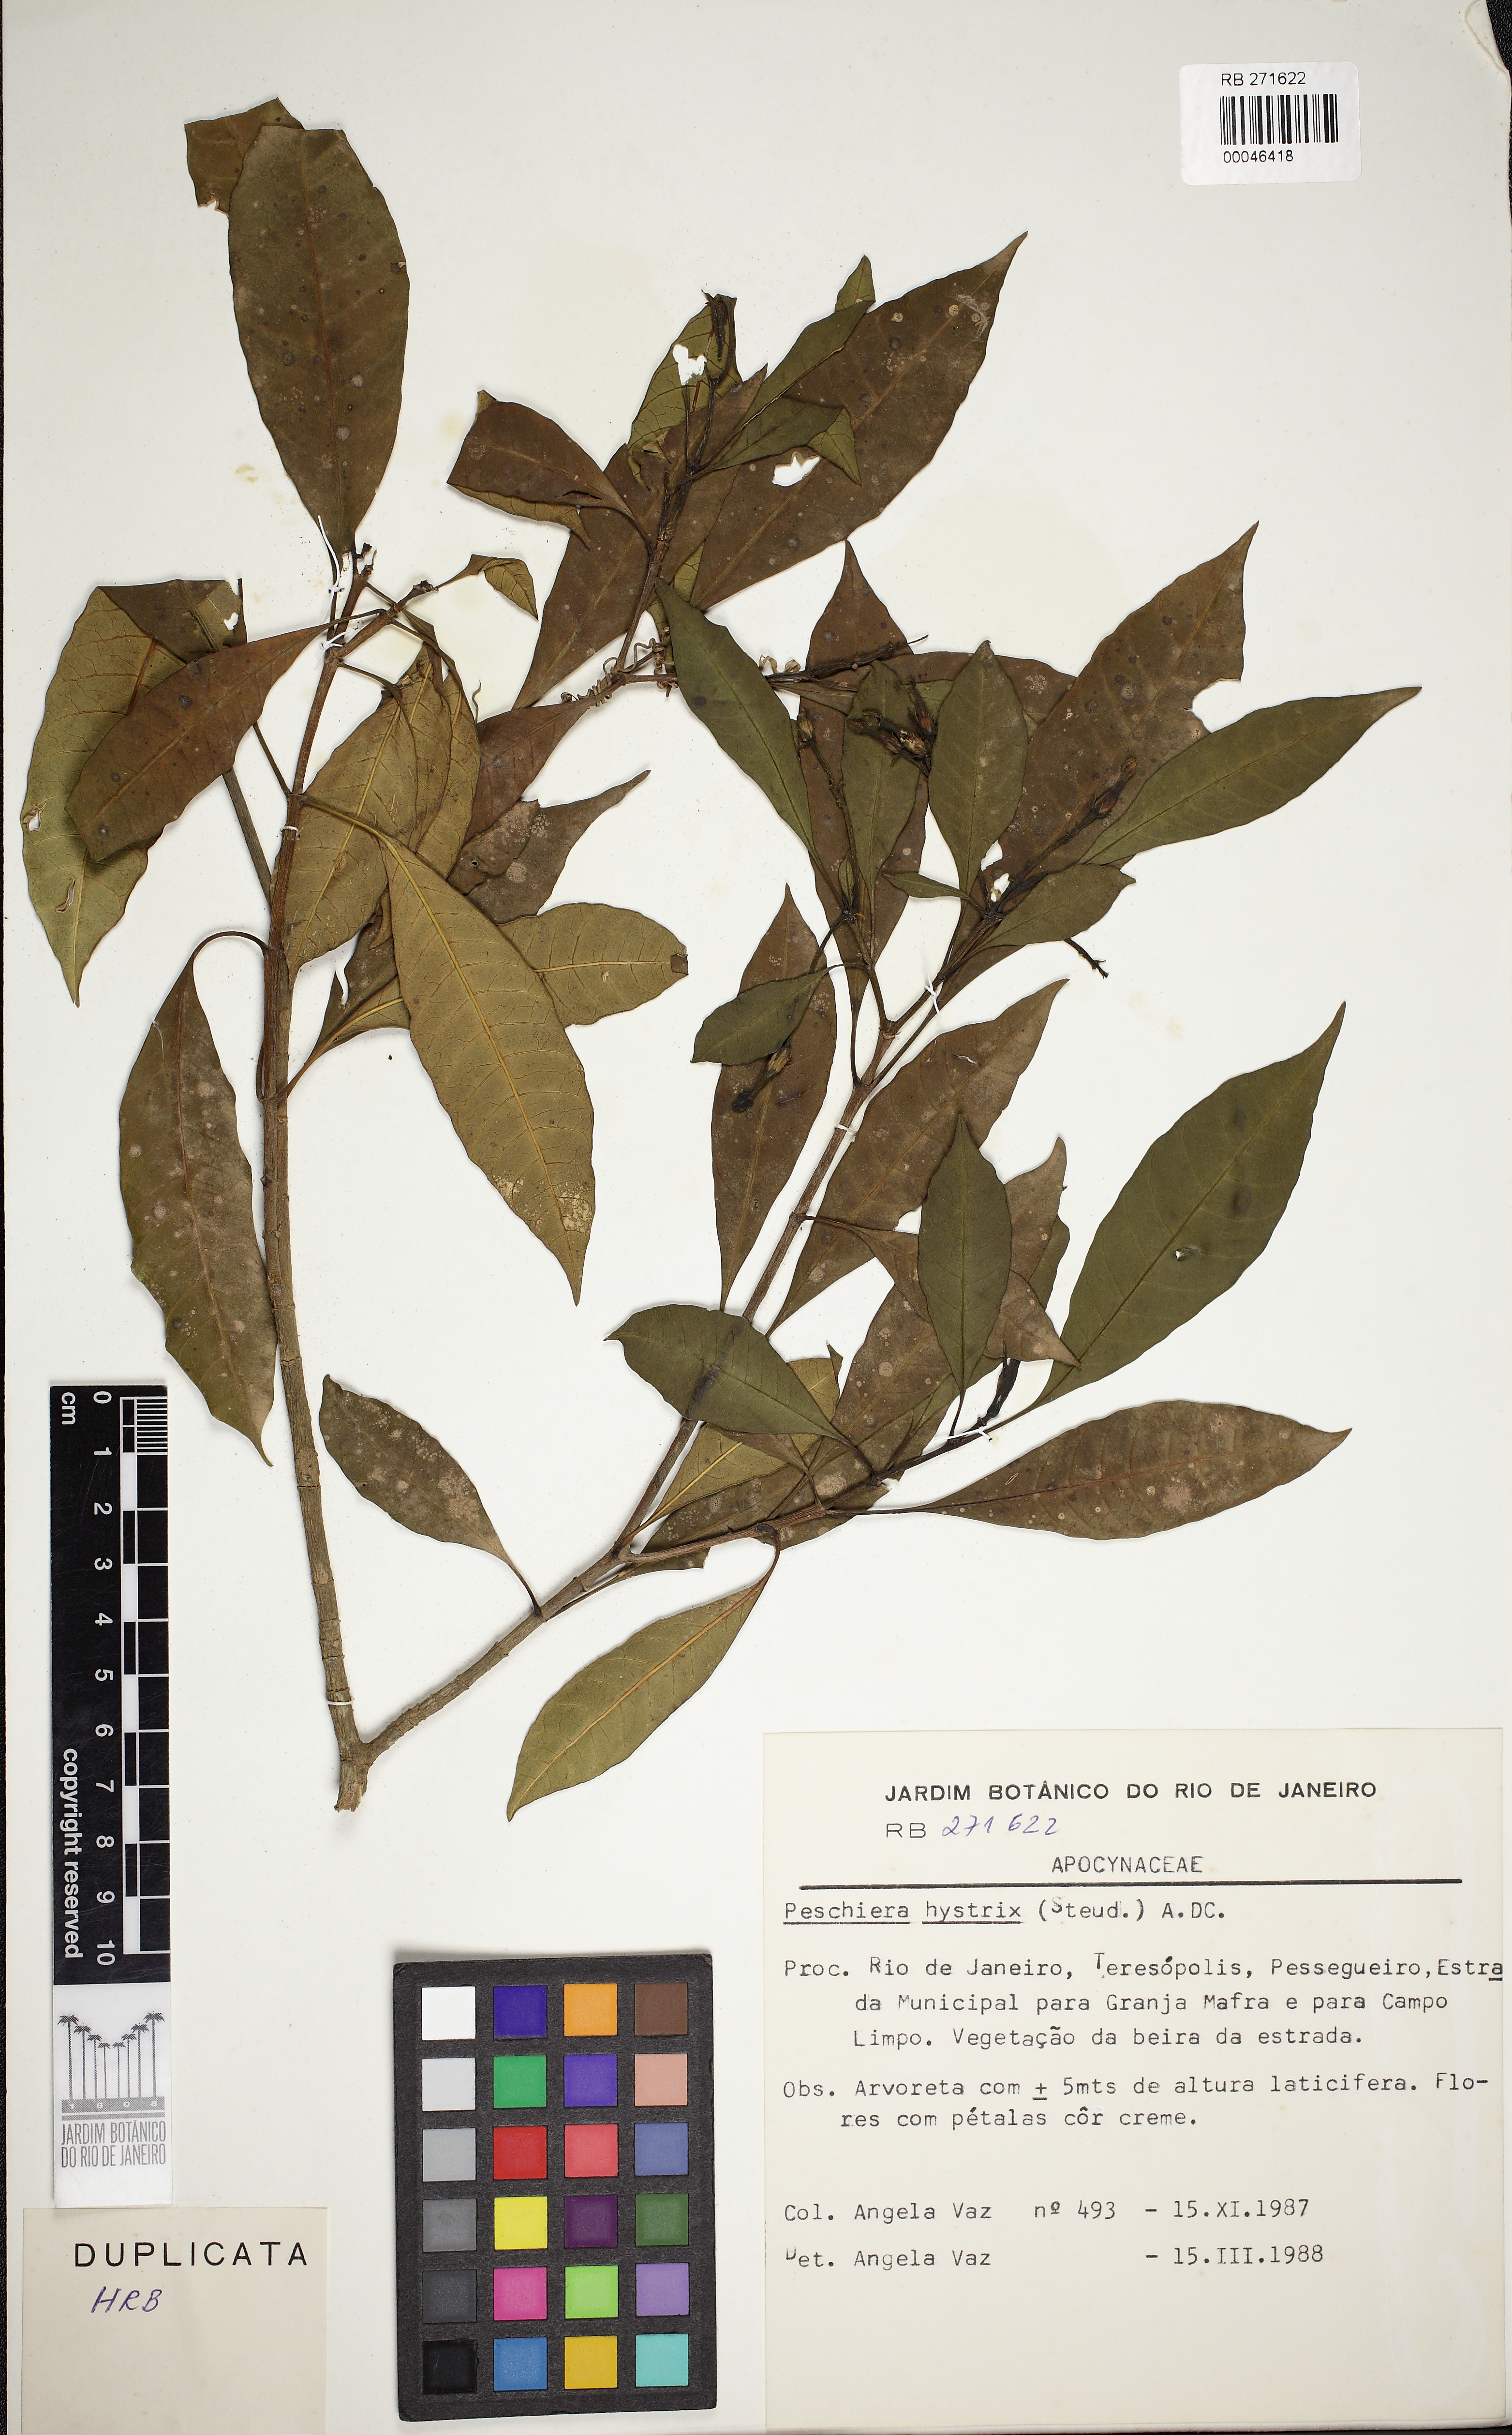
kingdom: Plantae
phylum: Tracheophyta
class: Magnoliopsida
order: Gentianales
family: Apocynaceae
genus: Tabernaemontana
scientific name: Tabernaemontana hystrix
